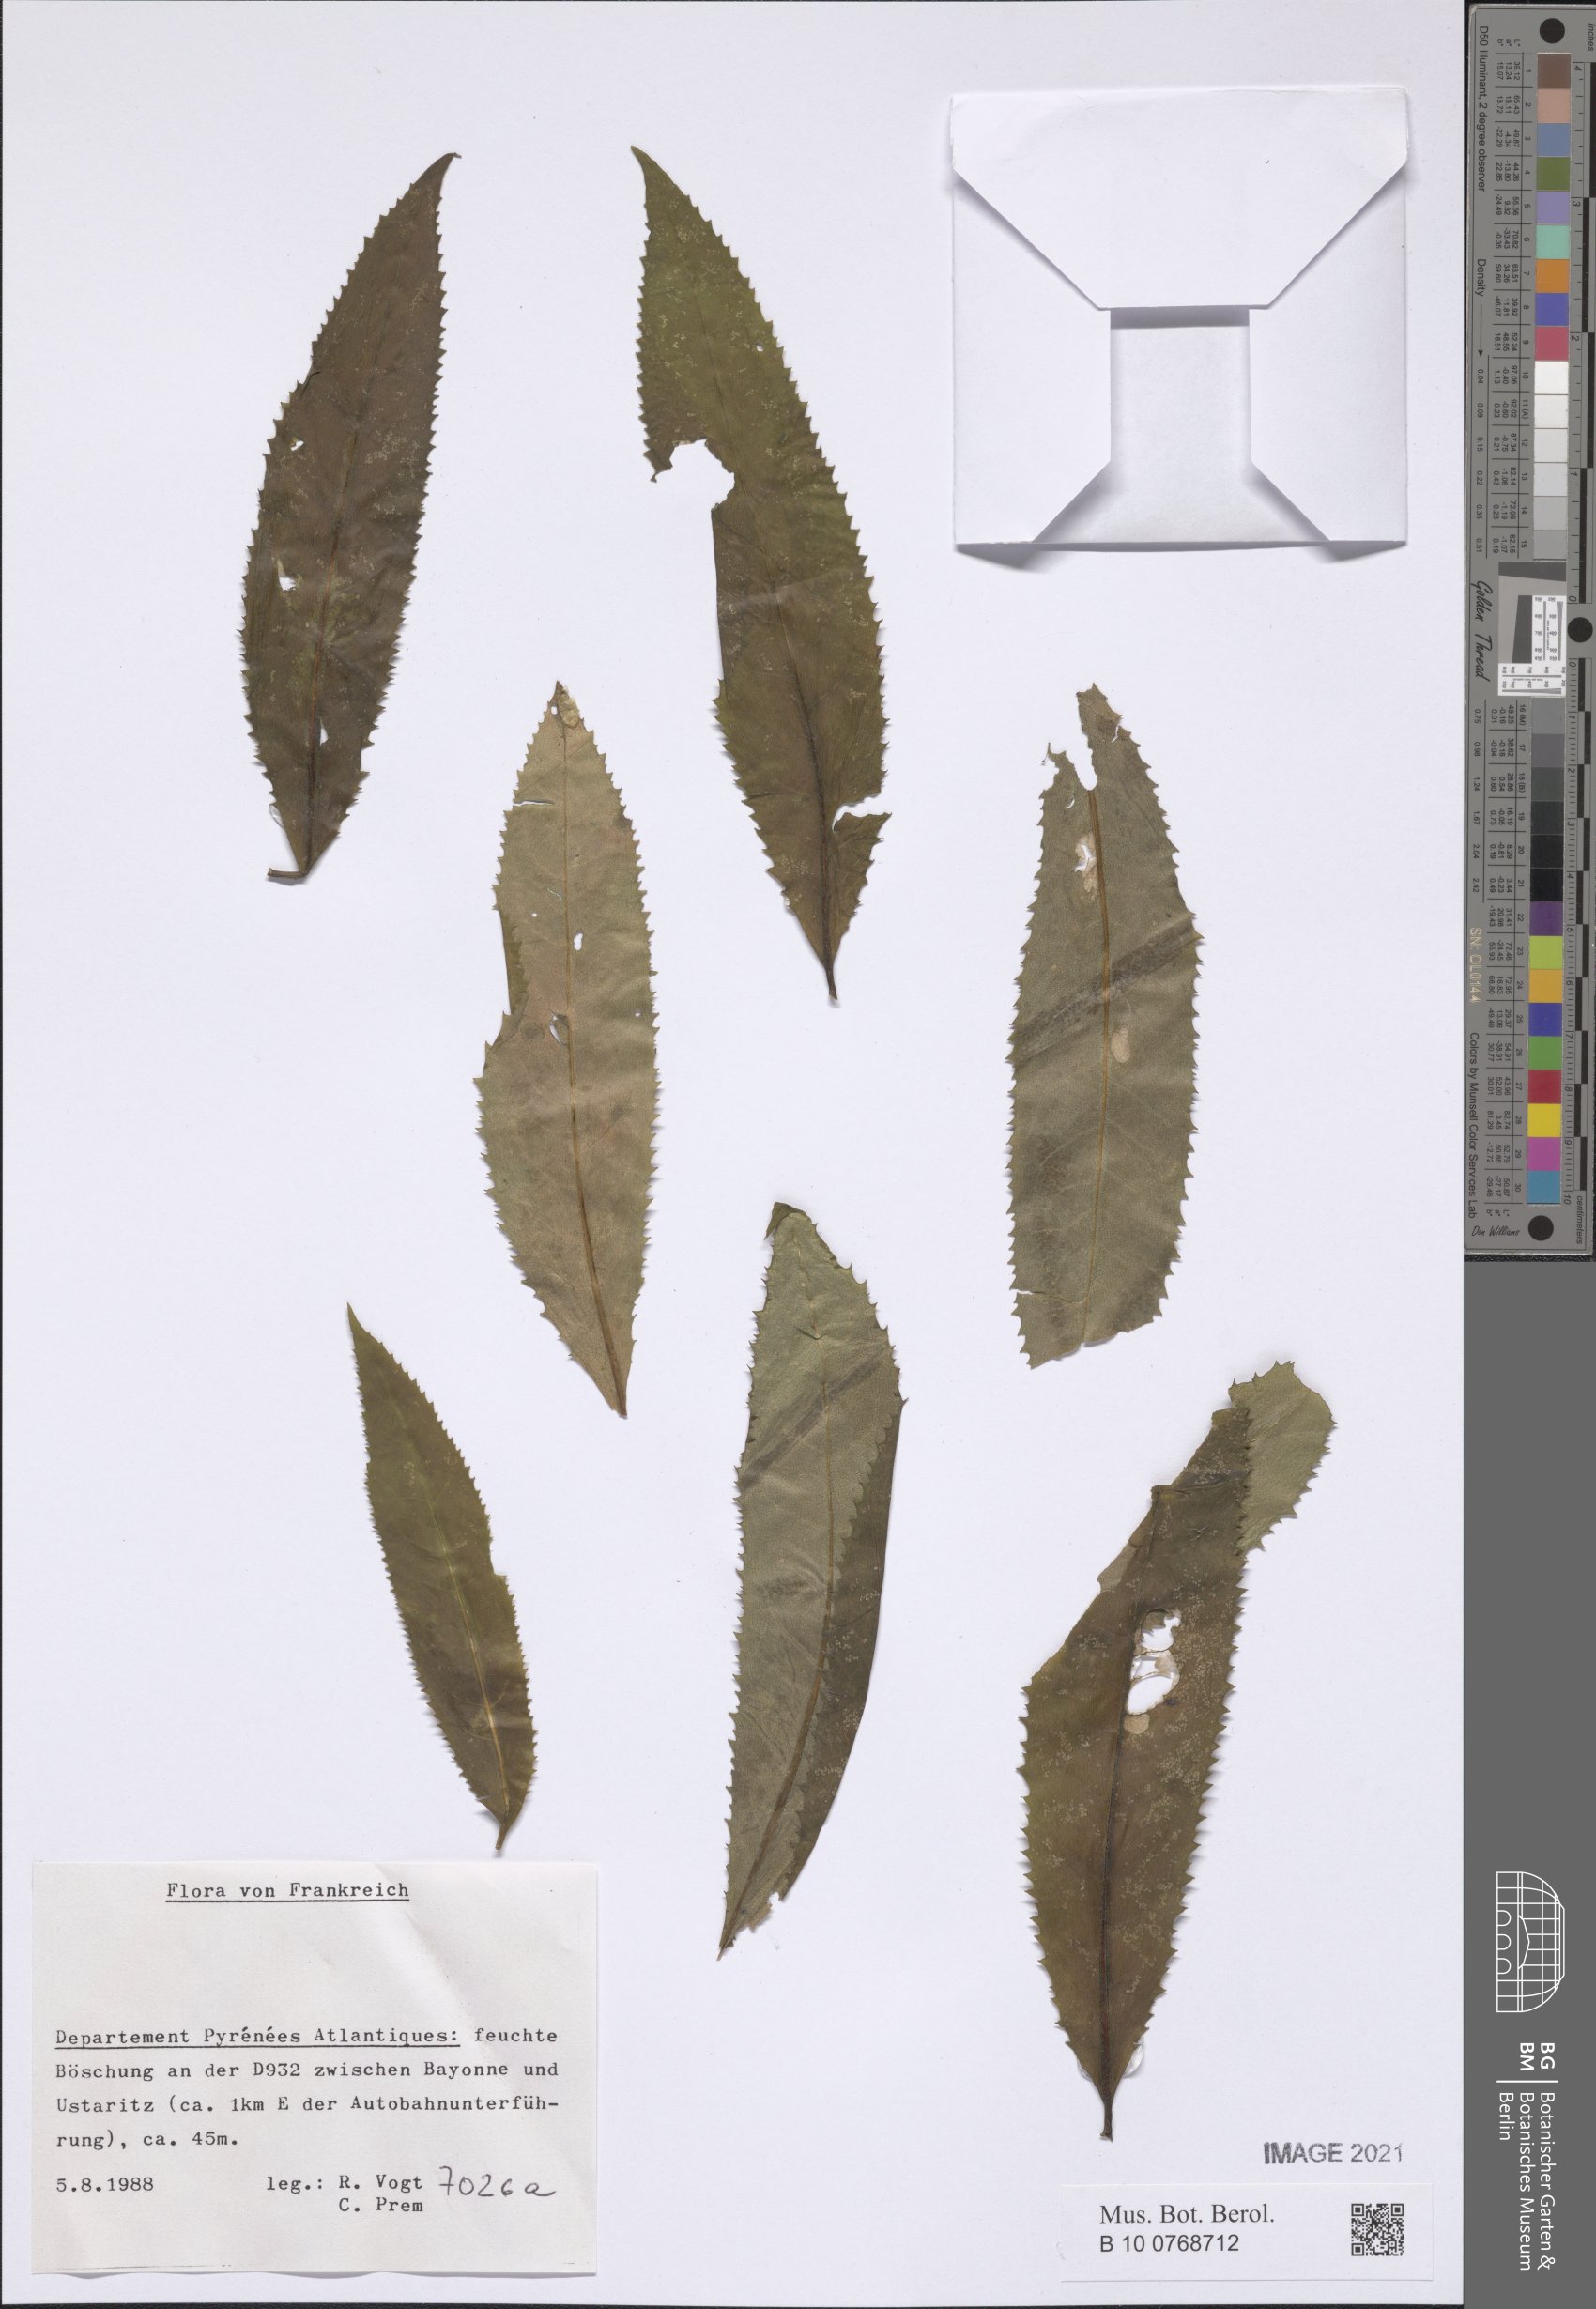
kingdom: Plantae
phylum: Tracheophyta
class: Magnoliopsida
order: Asterales
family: Asteraceae
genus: Senecio
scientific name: Senecio
